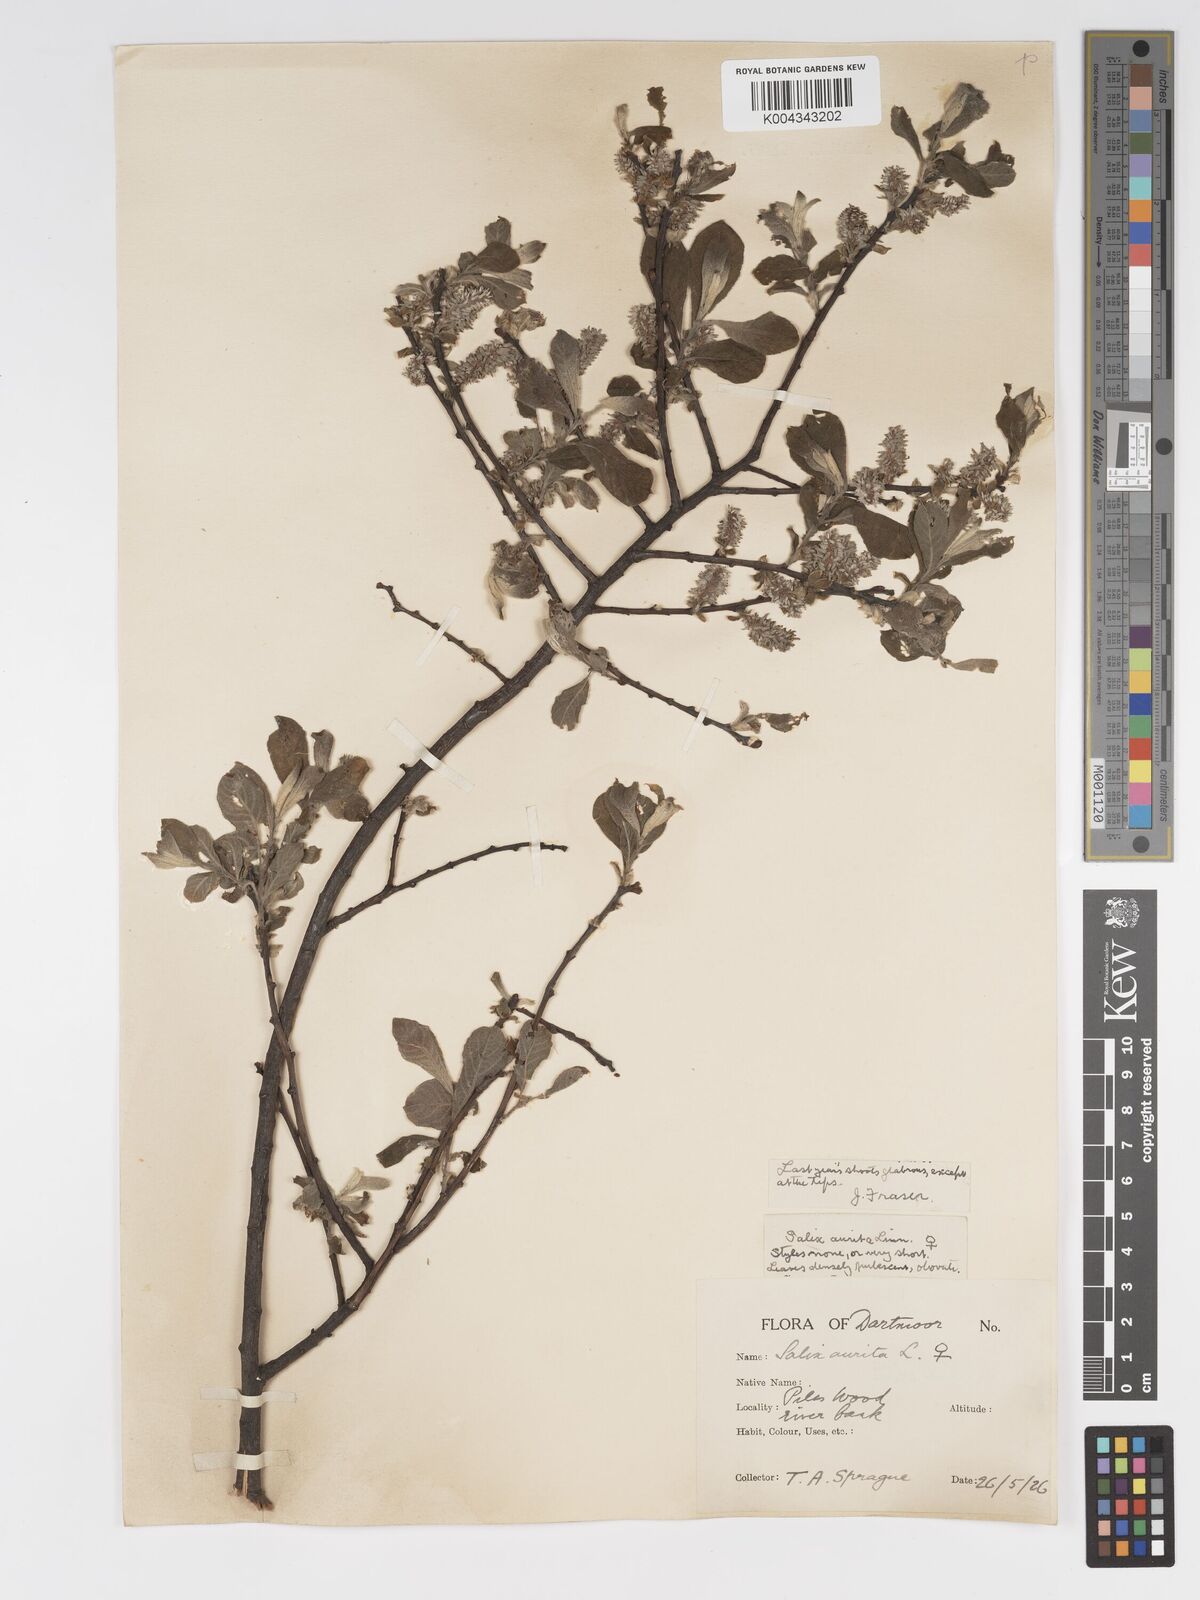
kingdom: Plantae
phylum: Tracheophyta
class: Magnoliopsida
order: Malpighiales
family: Salicaceae
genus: Salix
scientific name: Salix aurita
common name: Eared willow
